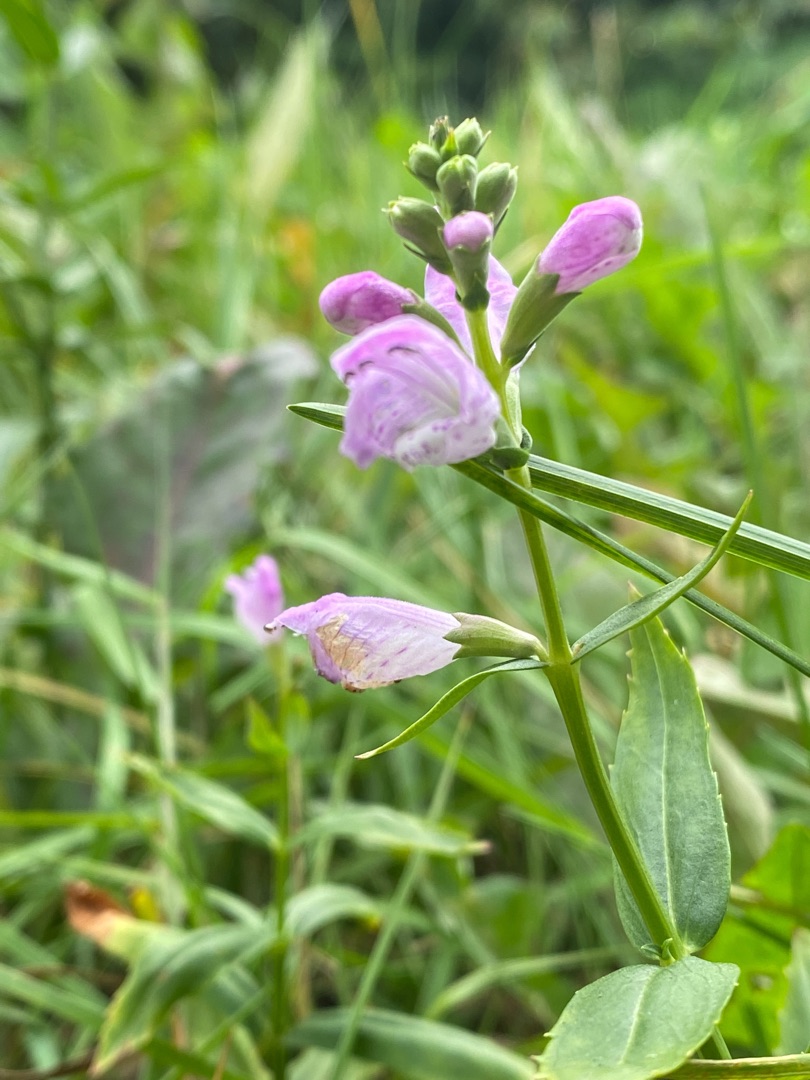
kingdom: Plantae
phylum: Tracheophyta
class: Magnoliopsida
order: Lamiales
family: Lamiaceae
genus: Physostegia
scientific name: Physostegia virginiana
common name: Drejeblomst
